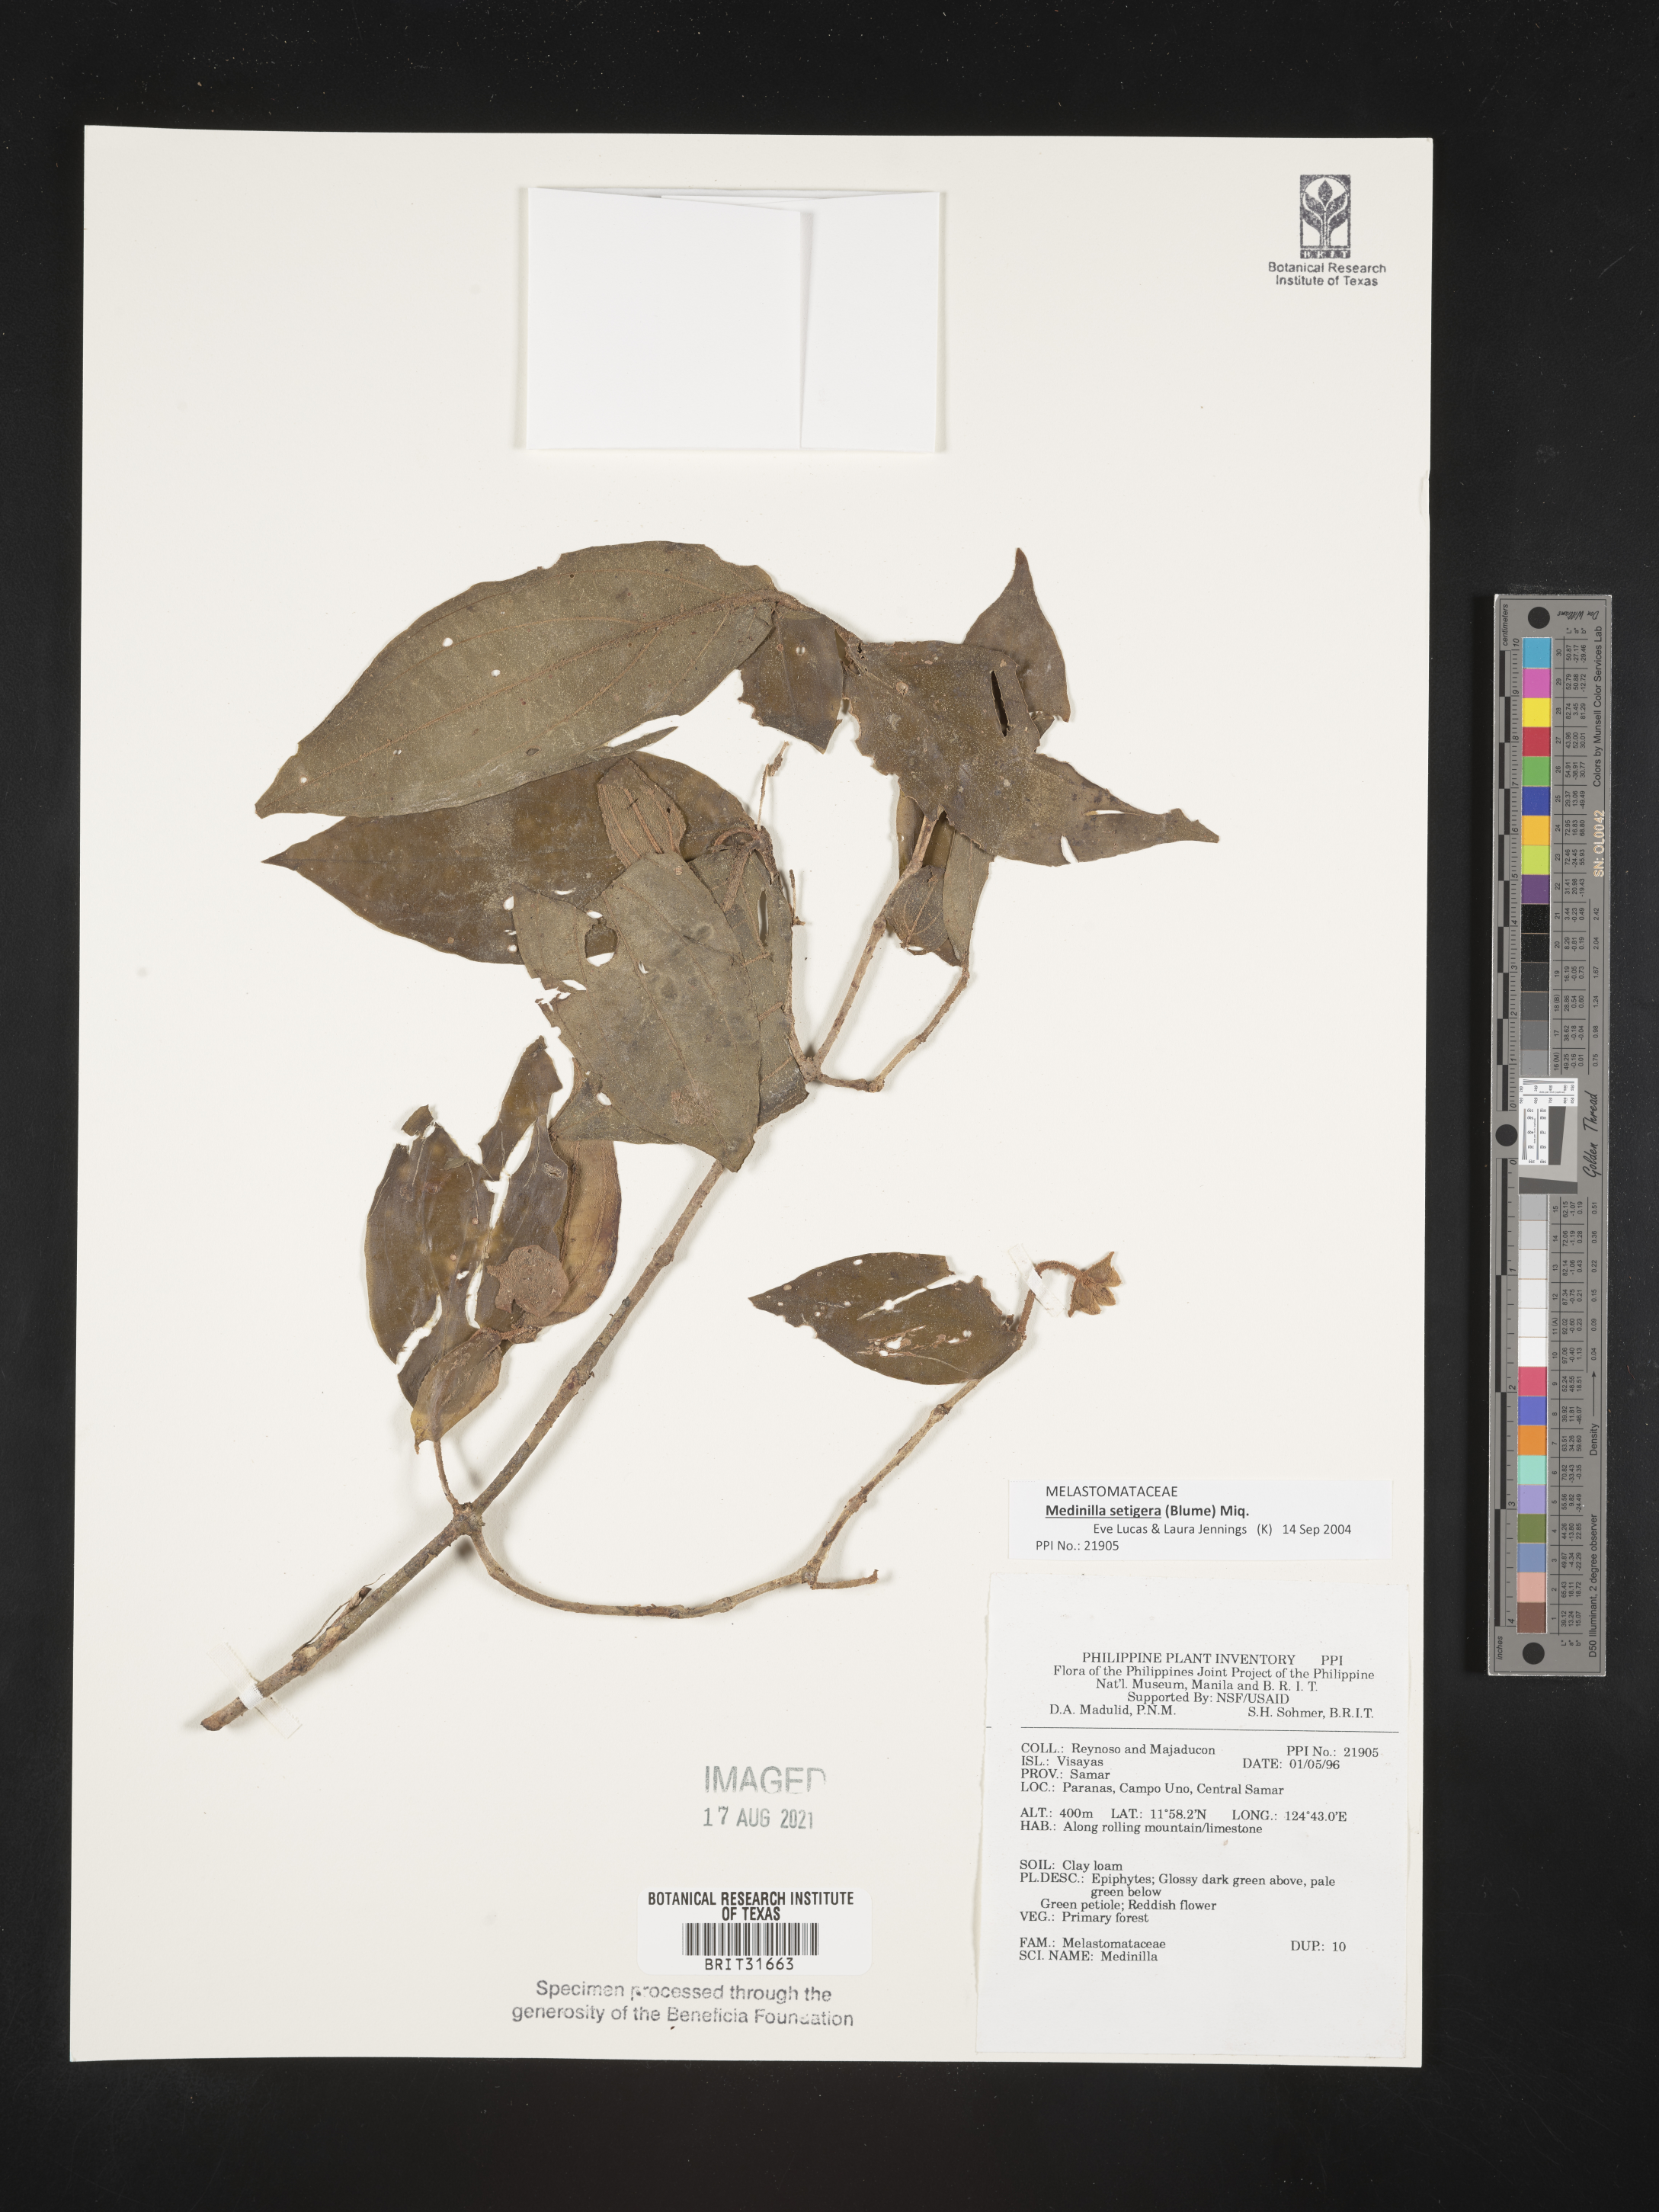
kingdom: Plantae
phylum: Tracheophyta
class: Magnoliopsida
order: Myrtales
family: Melastomataceae
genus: Medinilla
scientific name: Medinilla
